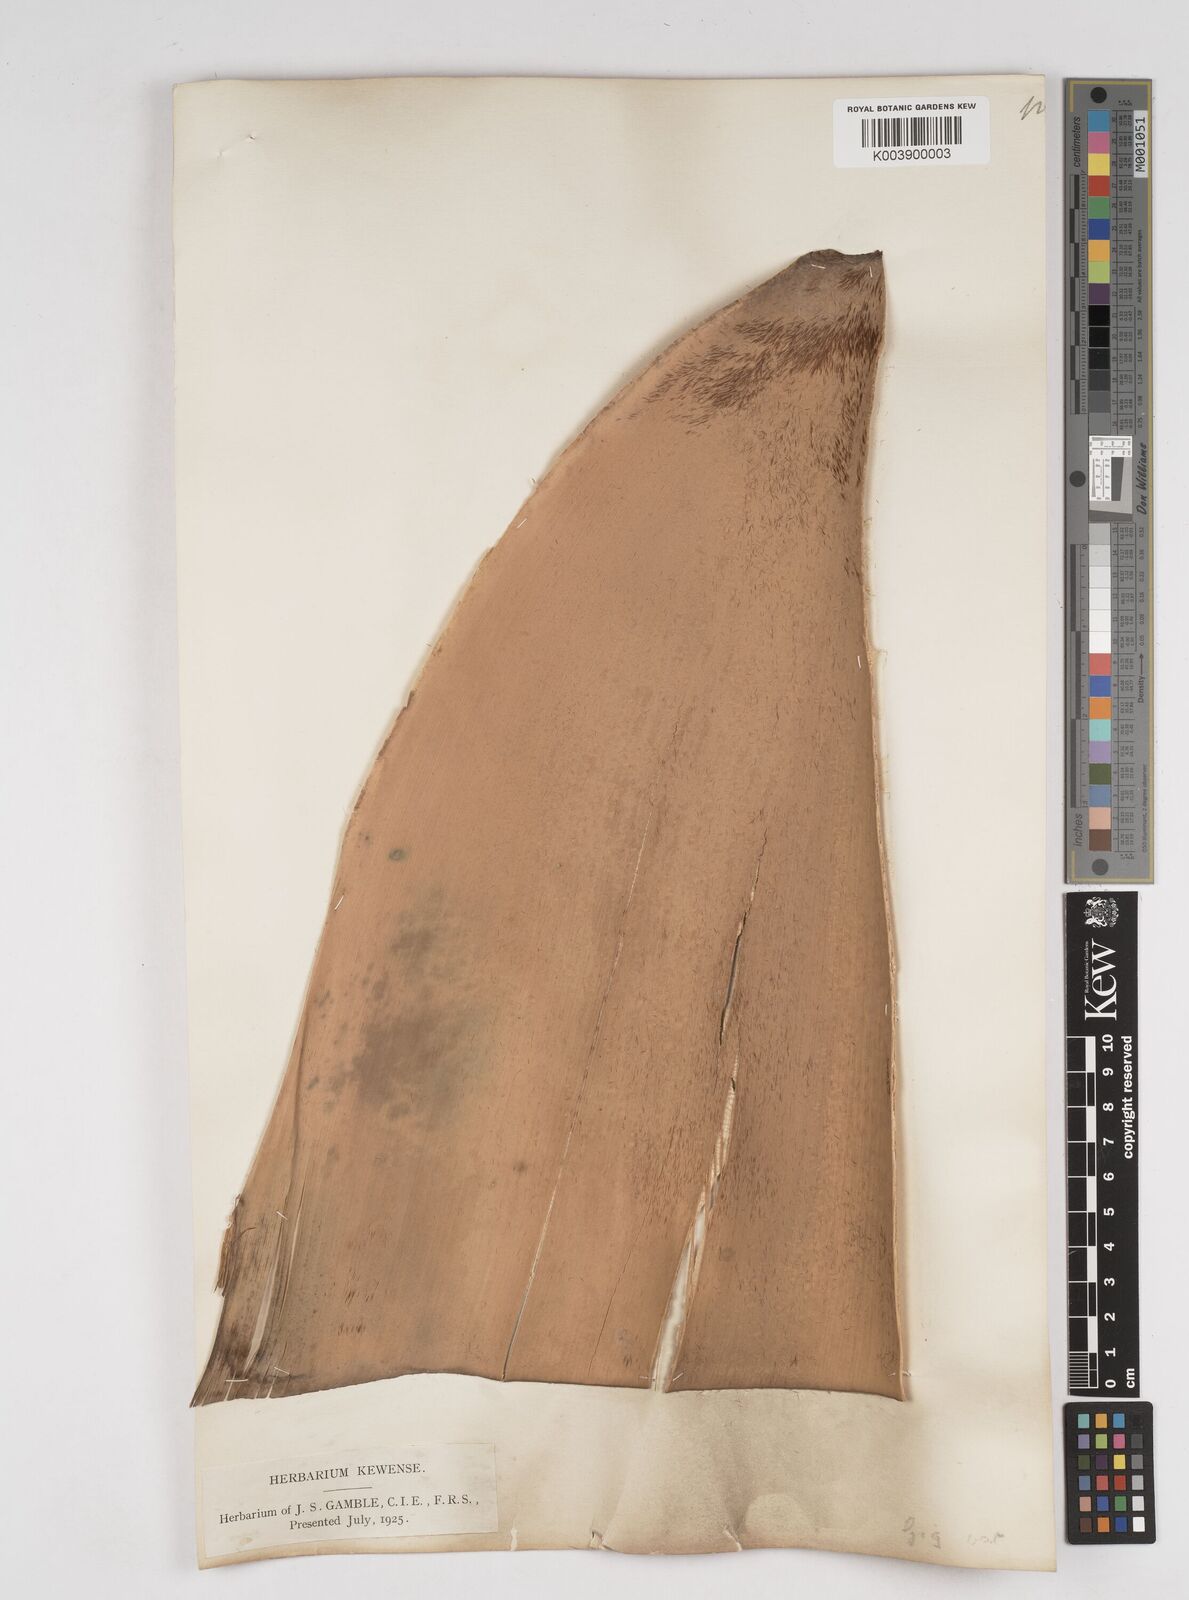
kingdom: Plantae
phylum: Tracheophyta
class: Liliopsida
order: Poales
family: Poaceae
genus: Gigantochloa
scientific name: Gigantochloa verticillata
